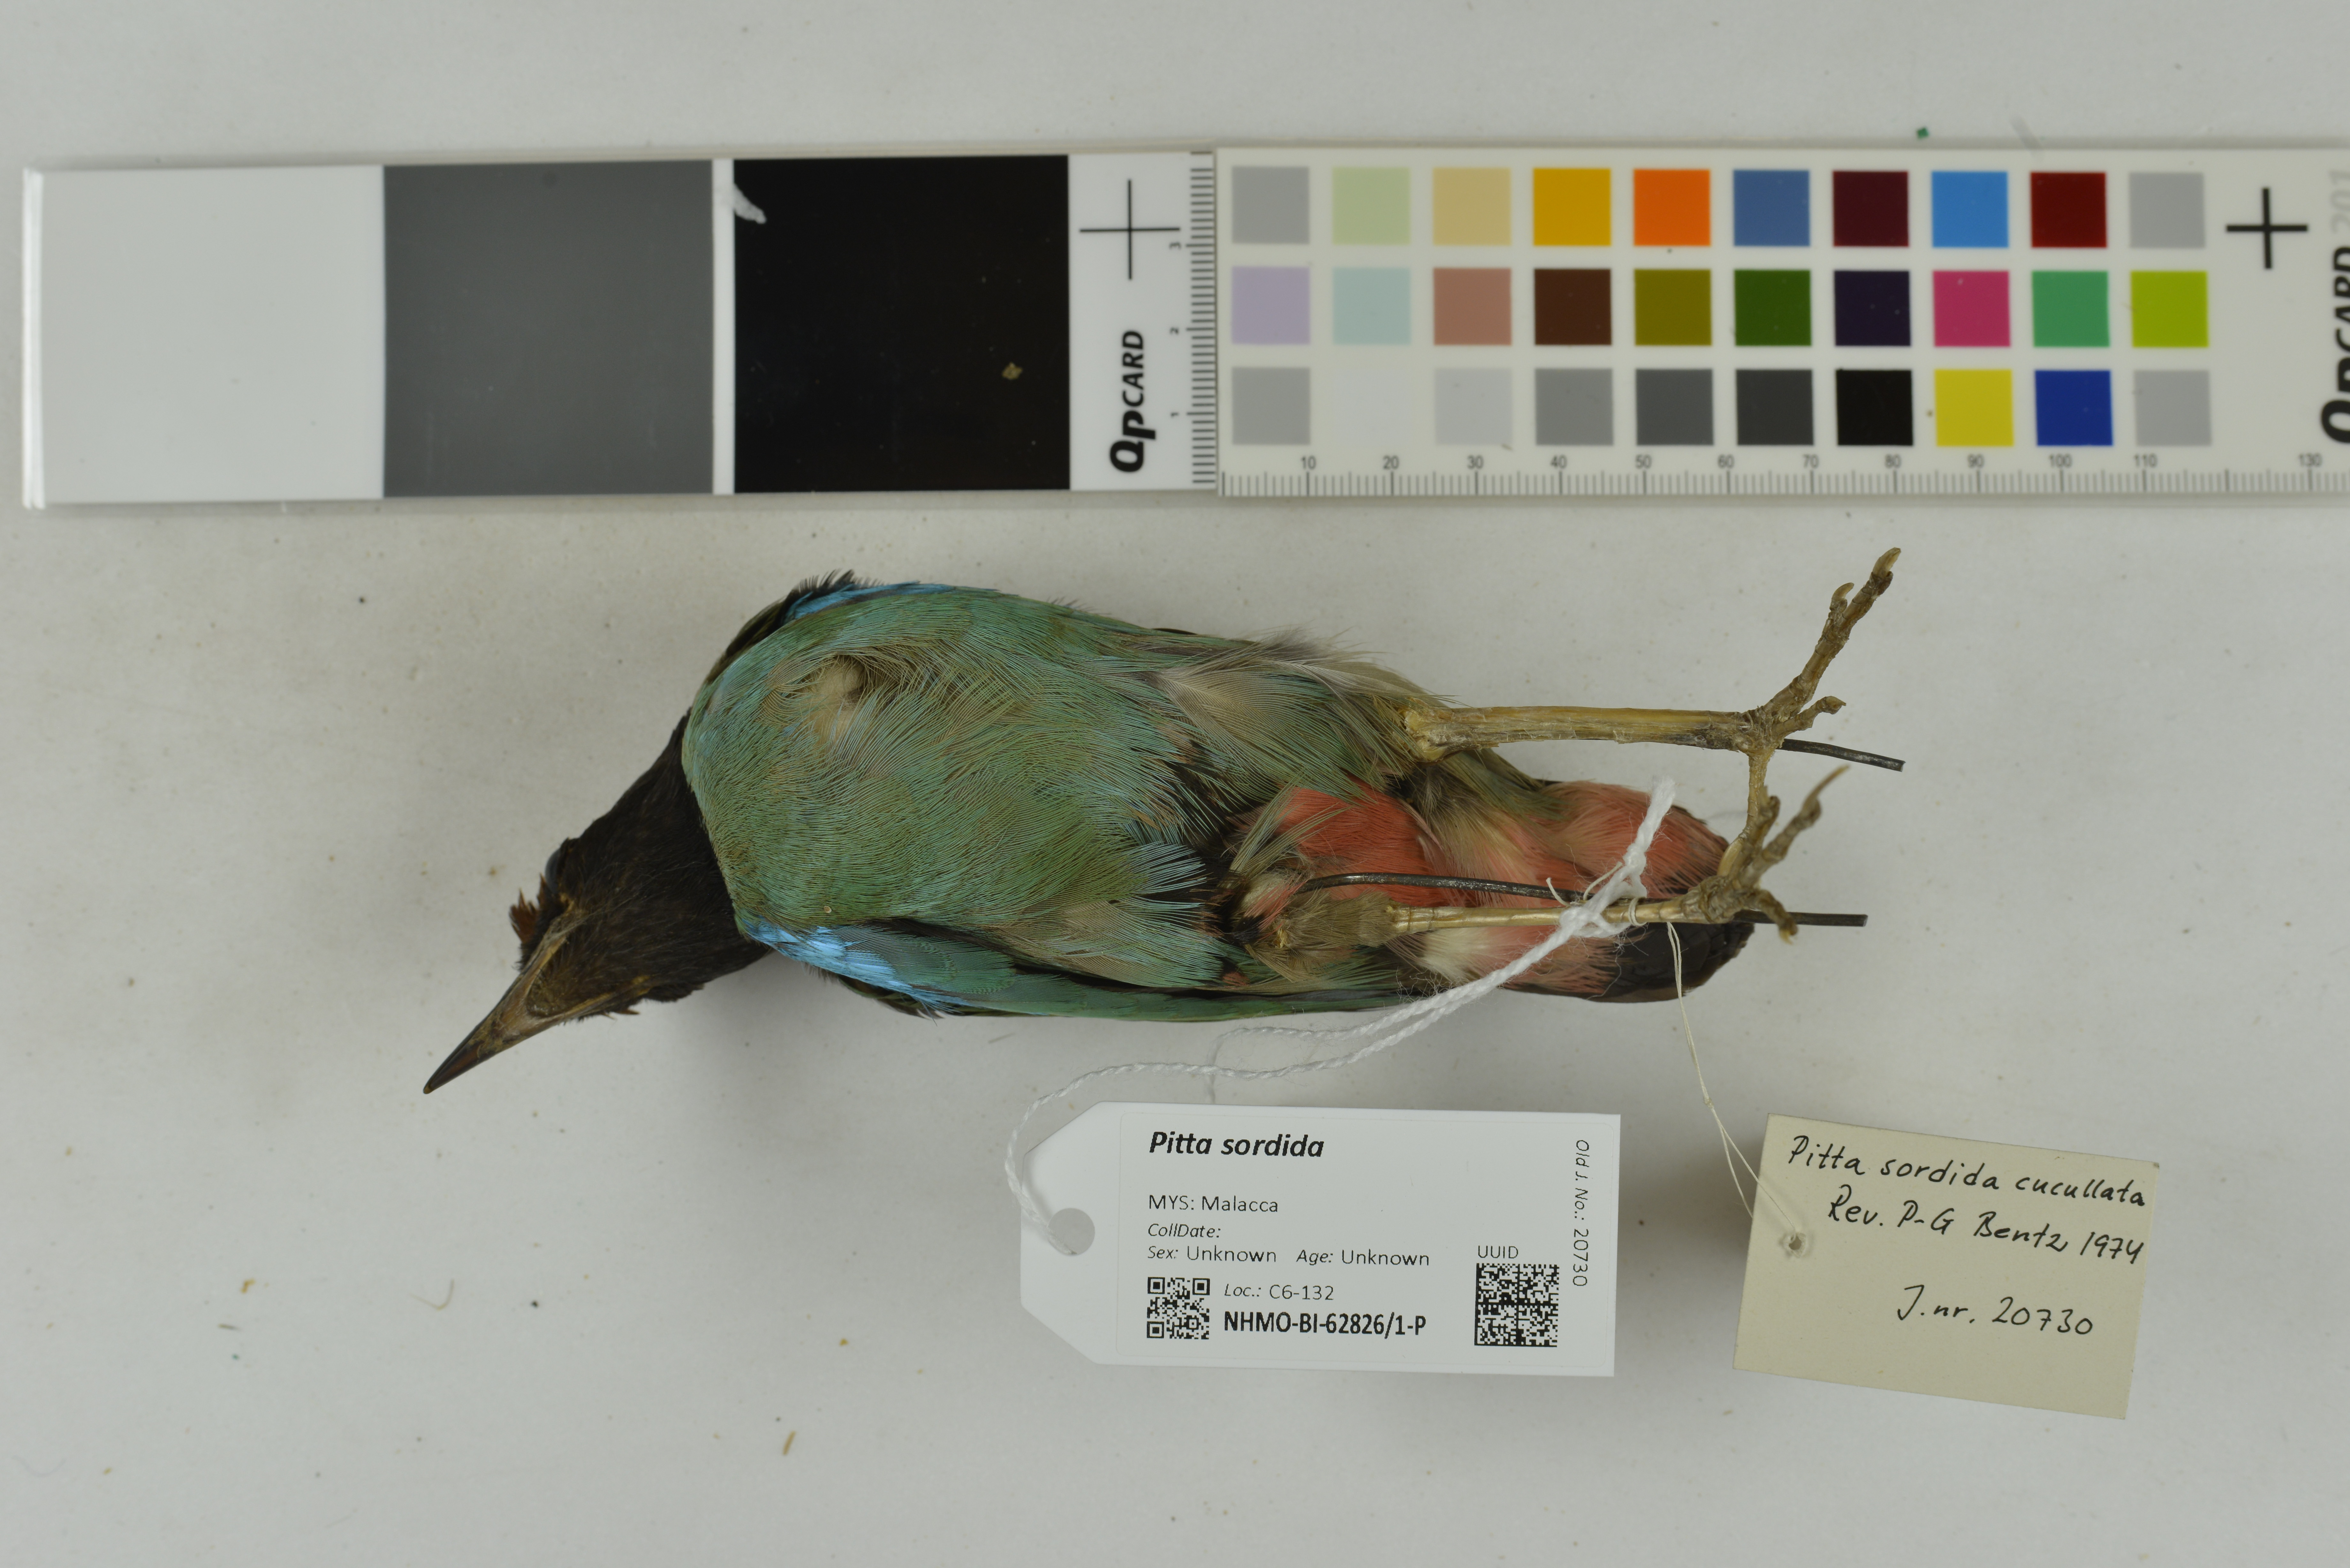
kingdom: Animalia
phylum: Chordata
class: Aves
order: Passeriformes
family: Pittidae
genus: Pitta
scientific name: Pitta sordida
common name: Hooded pitta
